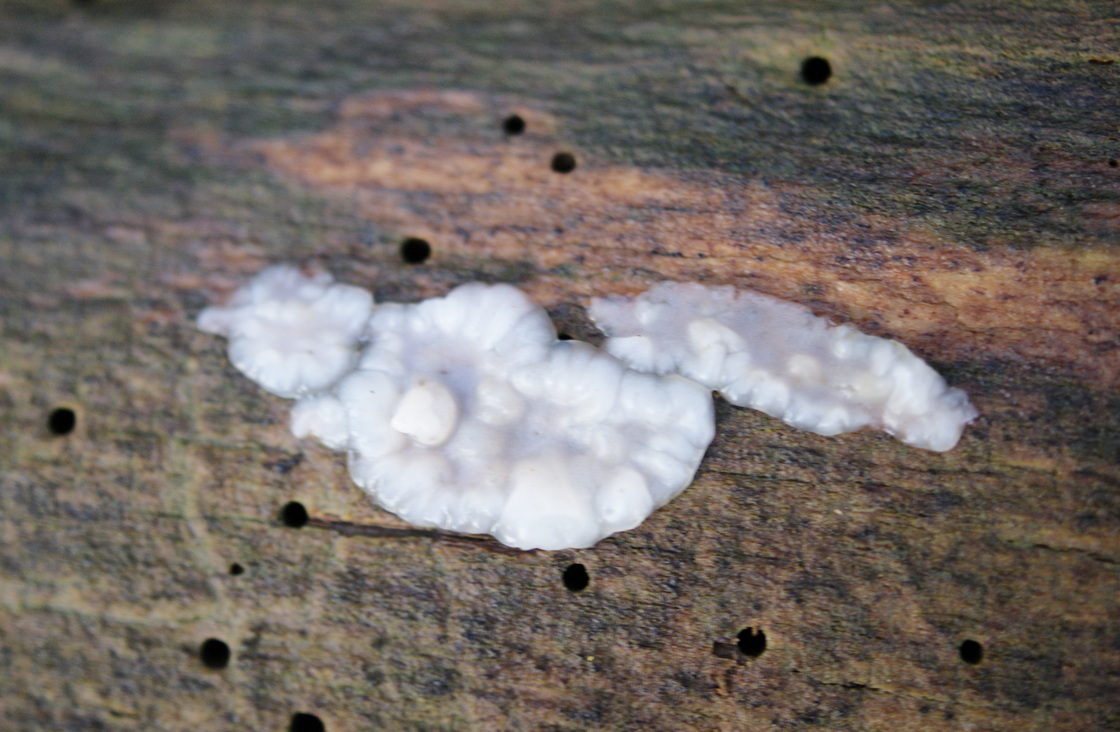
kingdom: Fungi
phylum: Basidiomycota
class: Agaricomycetes
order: Auriculariales
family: Auriculariaceae
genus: Exidia
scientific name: Exidia thuretiana
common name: hvidlig bævretop
